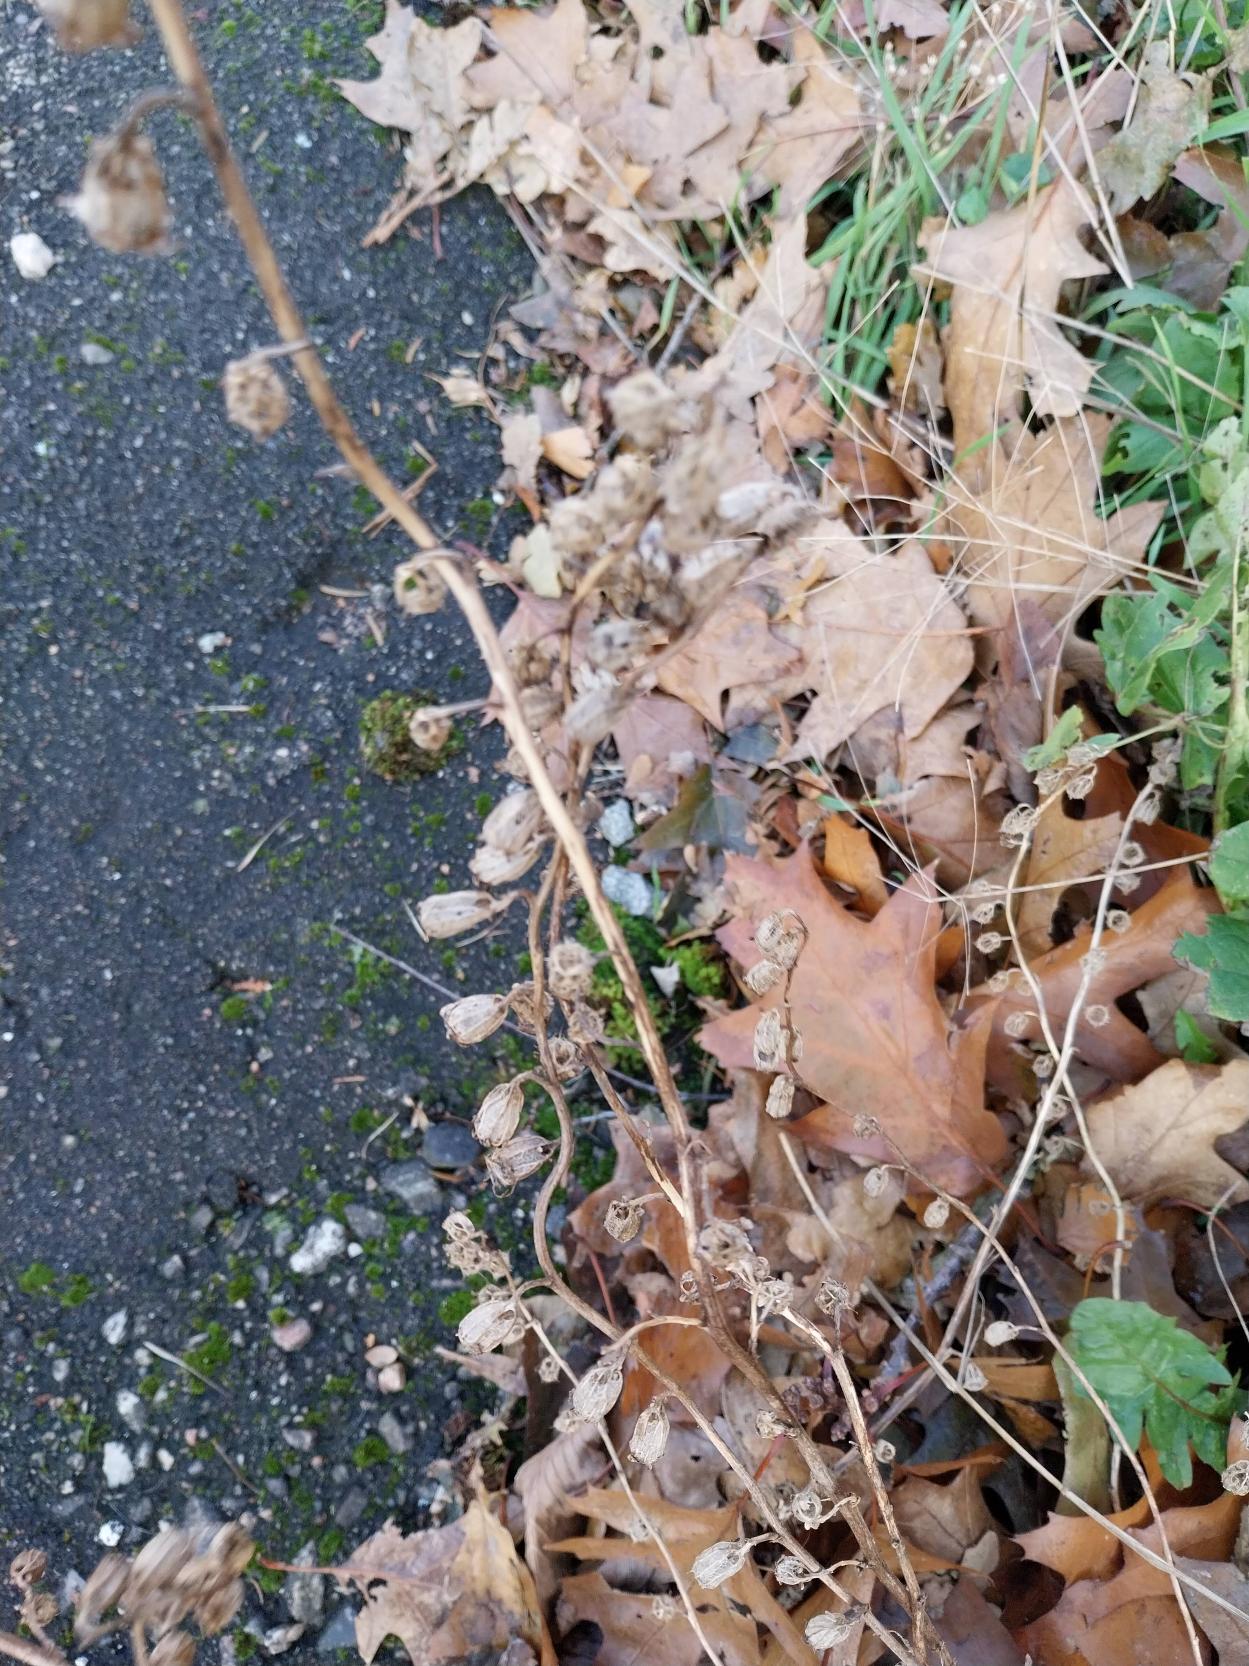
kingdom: Plantae
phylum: Tracheophyta
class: Magnoliopsida
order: Asterales
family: Campanulaceae
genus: Campanula
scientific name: Campanula rapunculoides
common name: Ensidig klokke
